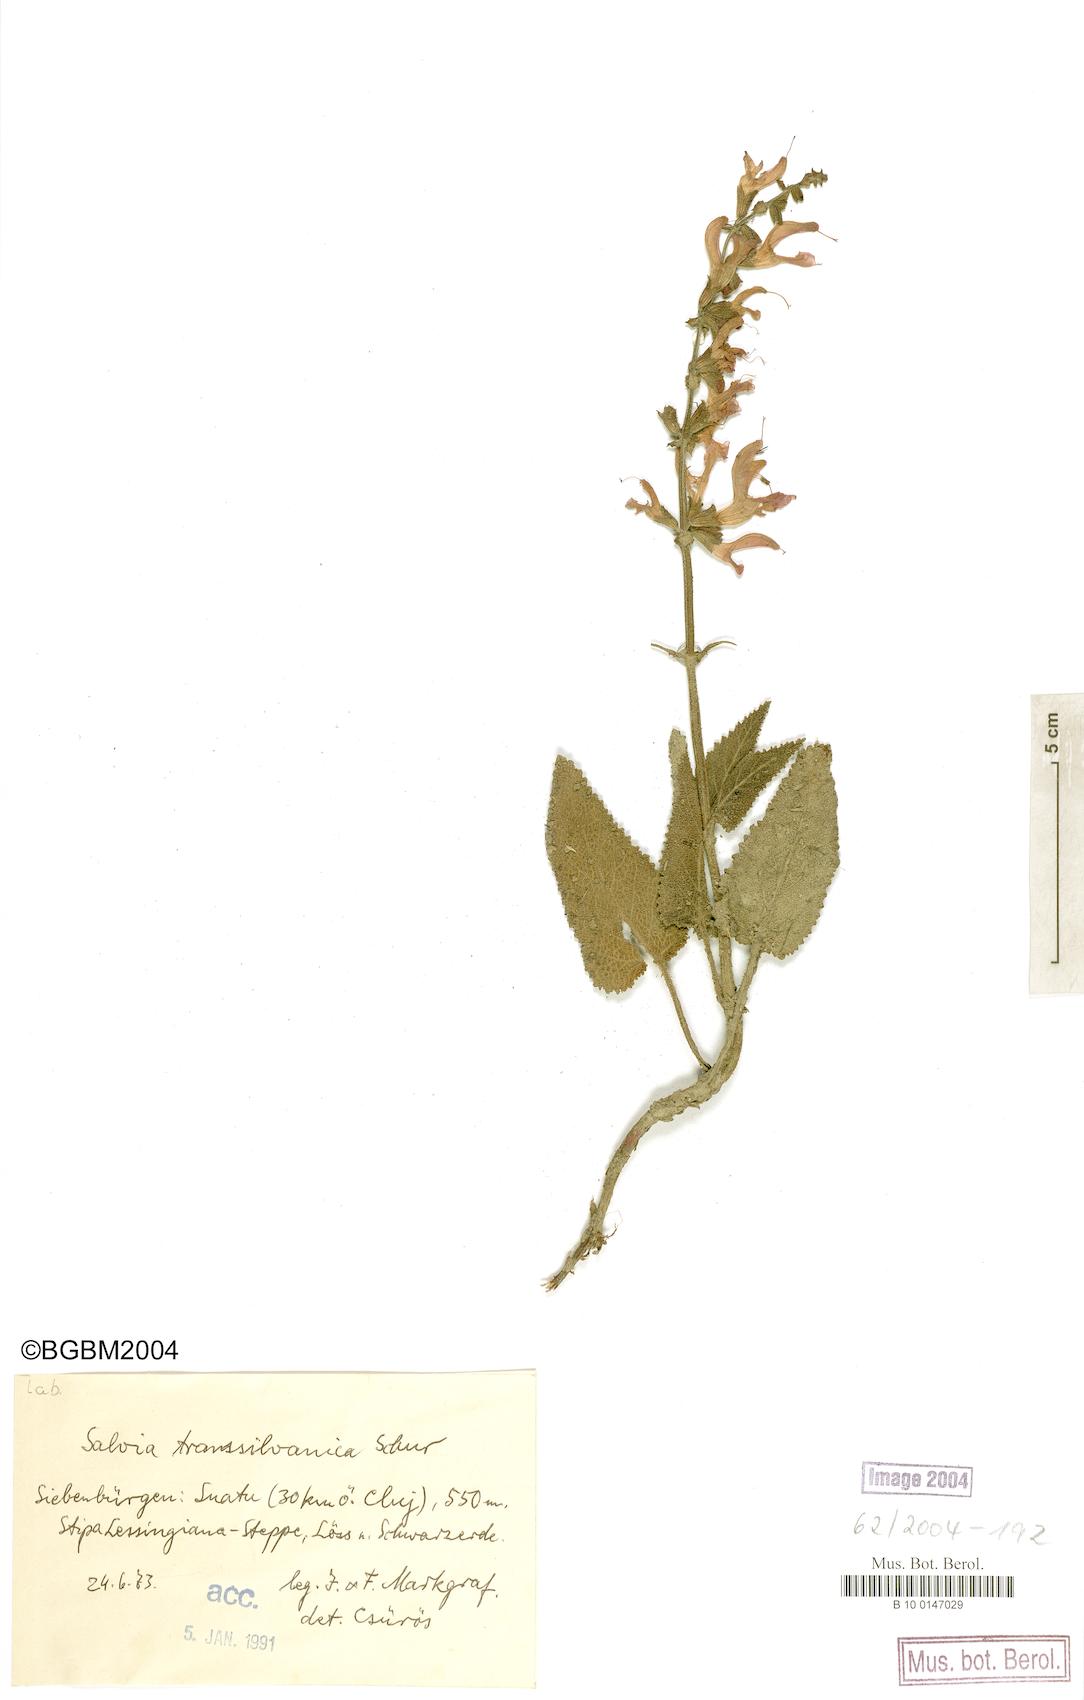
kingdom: Plantae
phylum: Tracheophyta
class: Magnoliopsida
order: Lamiales
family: Lamiaceae
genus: Salvia
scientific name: Salvia transsylvanica
